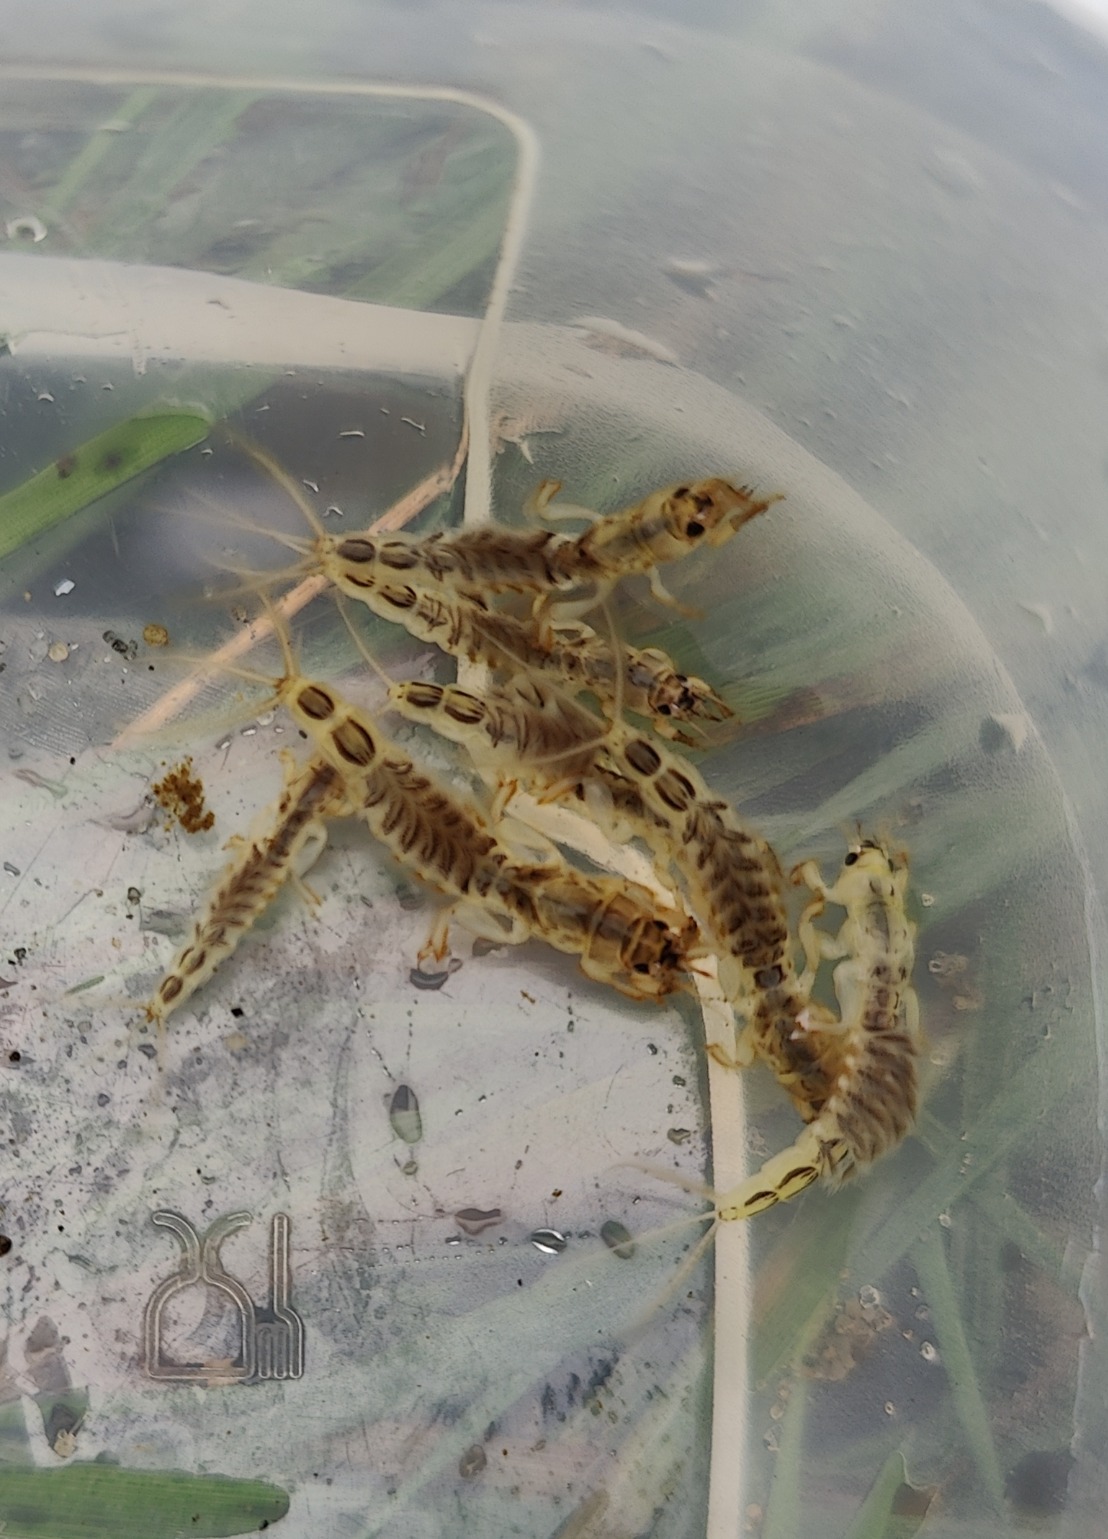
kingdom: Animalia
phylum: Arthropoda
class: Insecta
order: Ephemeroptera
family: Ephemeridae
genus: Ephemera
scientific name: Ephemera vulgata
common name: Sø-majflue
